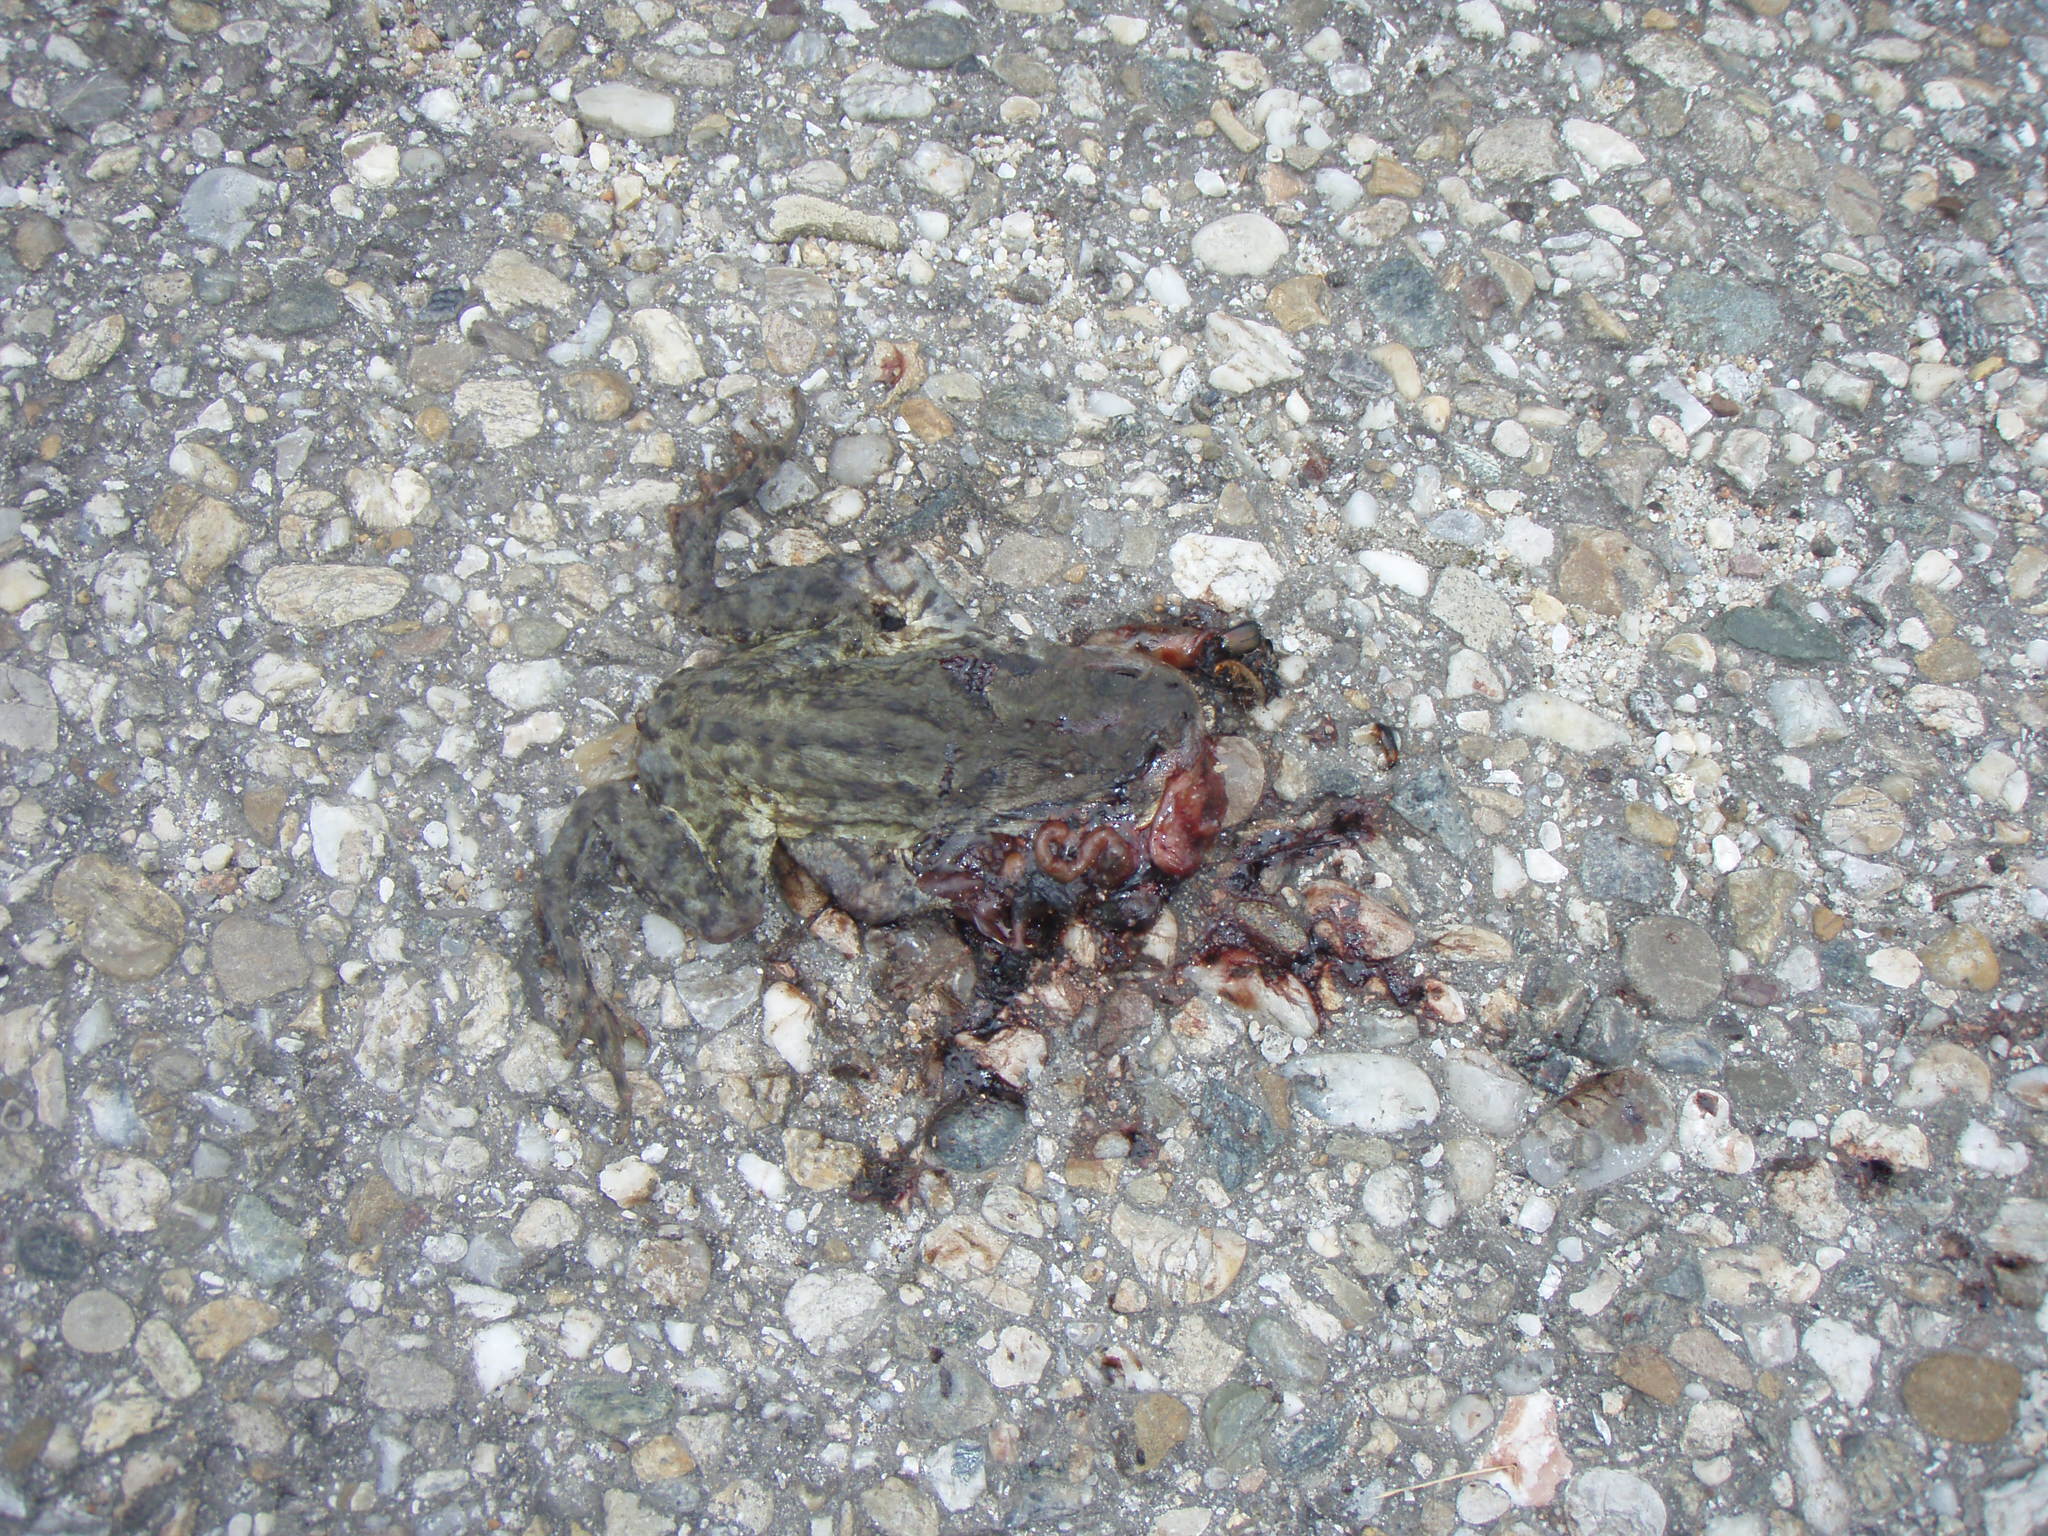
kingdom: Animalia
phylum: Chordata
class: Amphibia
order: Anura
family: Bufonidae
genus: Bufo
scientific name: Bufo bufo
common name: Common toad
